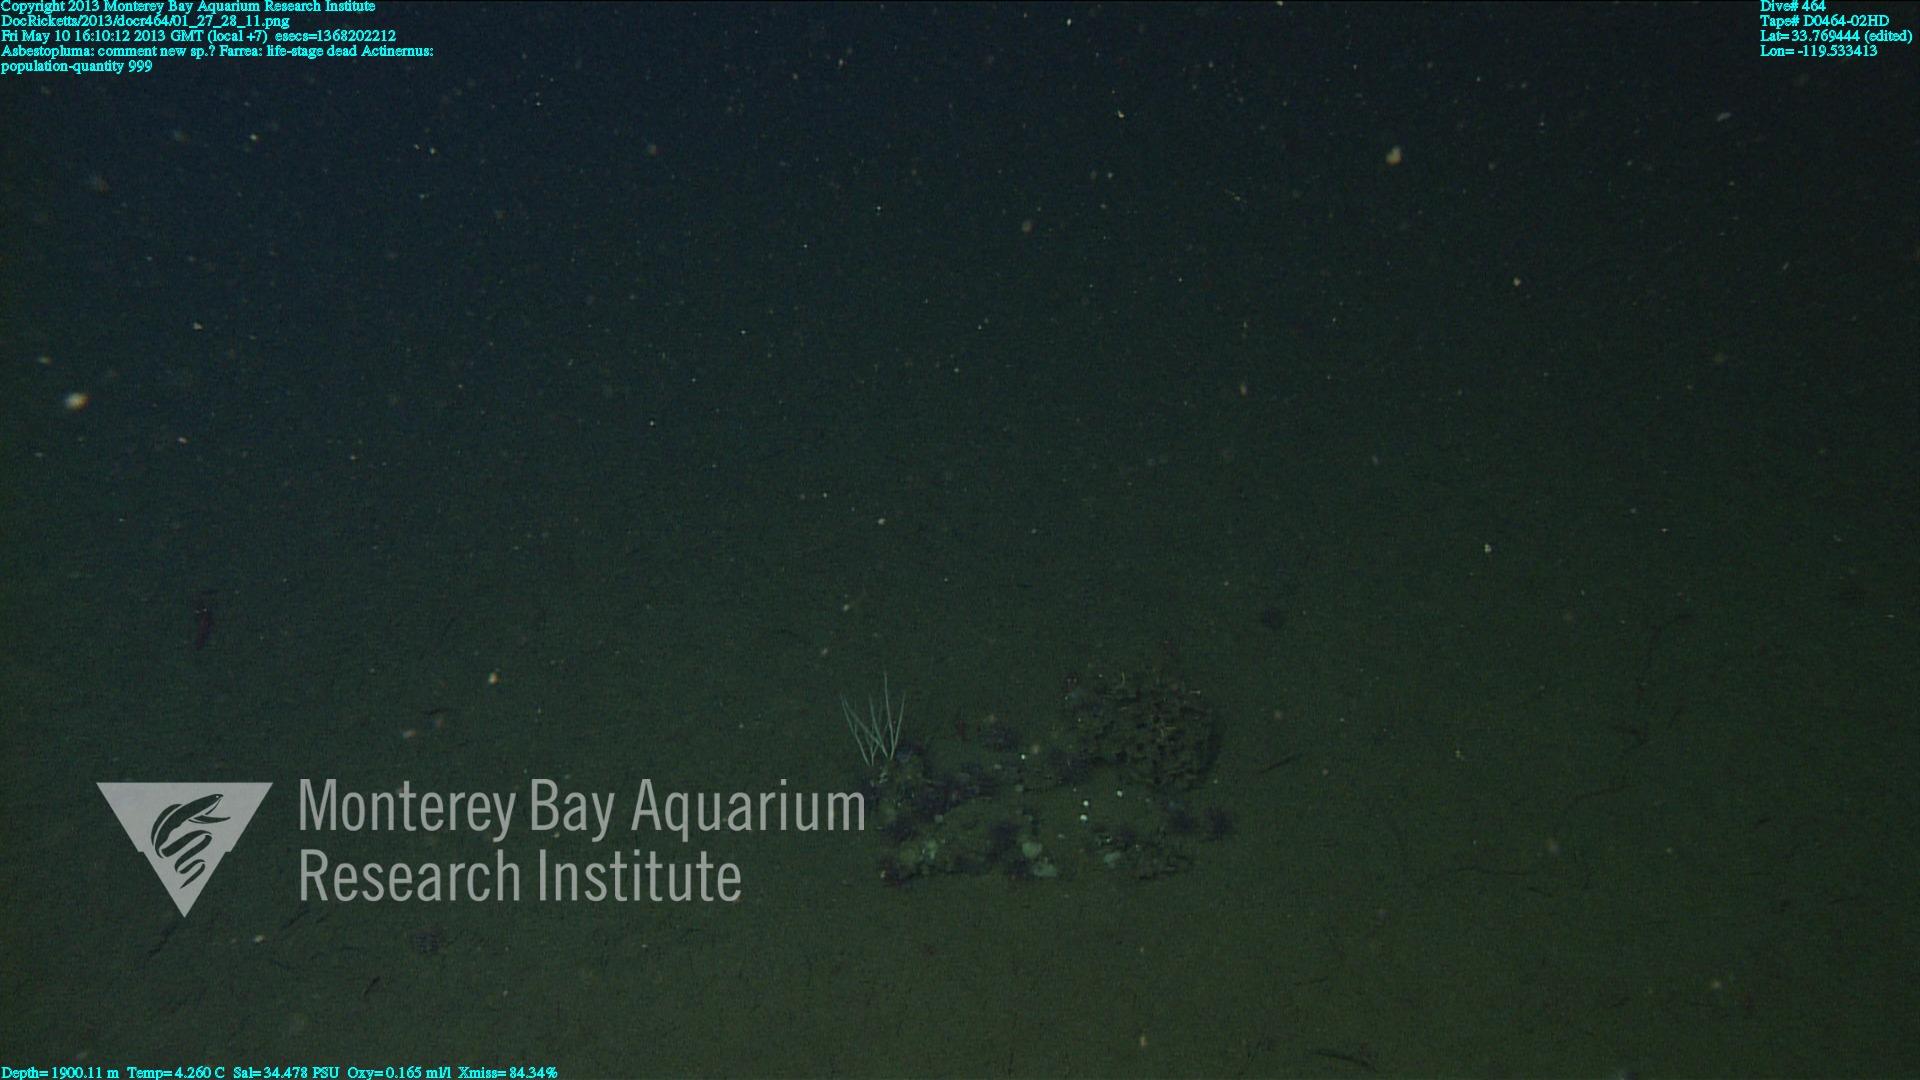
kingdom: Animalia
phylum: Porifera
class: Hexactinellida
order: Sceptrulophora
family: Farreidae
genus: Farrea
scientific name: Farrea
